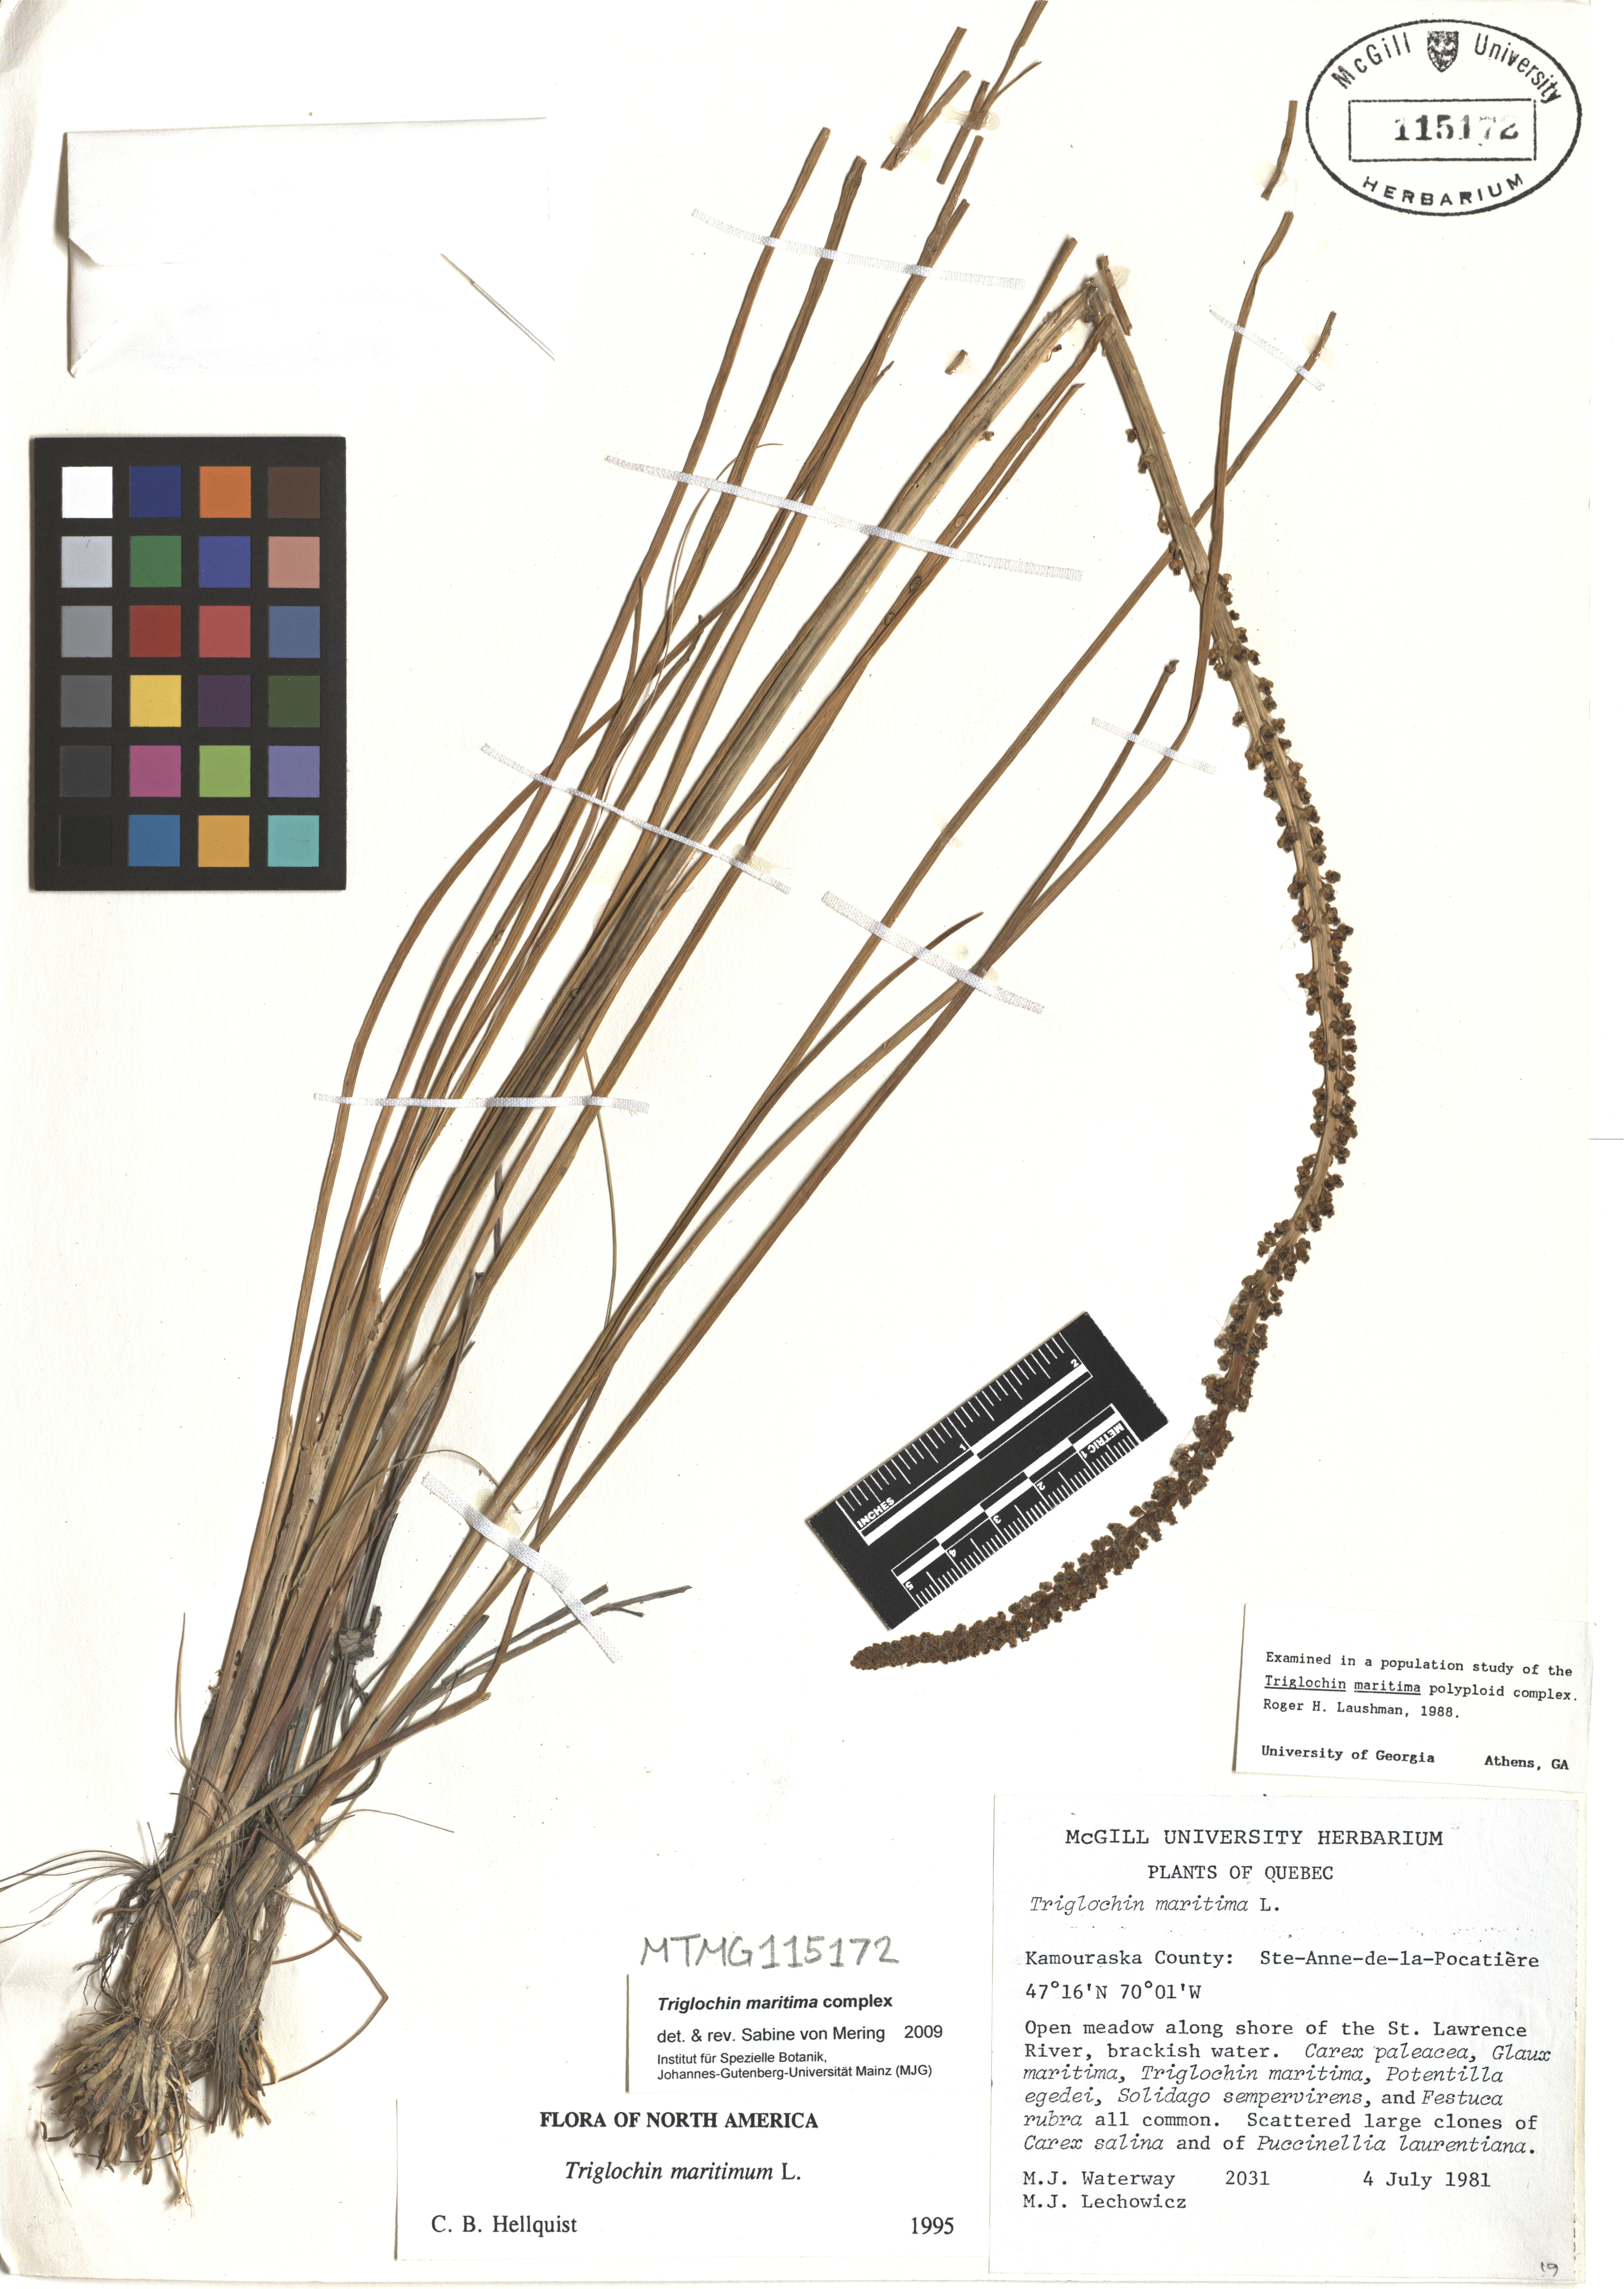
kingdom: Plantae
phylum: Tracheophyta
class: Liliopsida
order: Alismatales
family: Juncaginaceae
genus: Triglochin
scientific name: Triglochin maritima
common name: Sea arrowgrass
